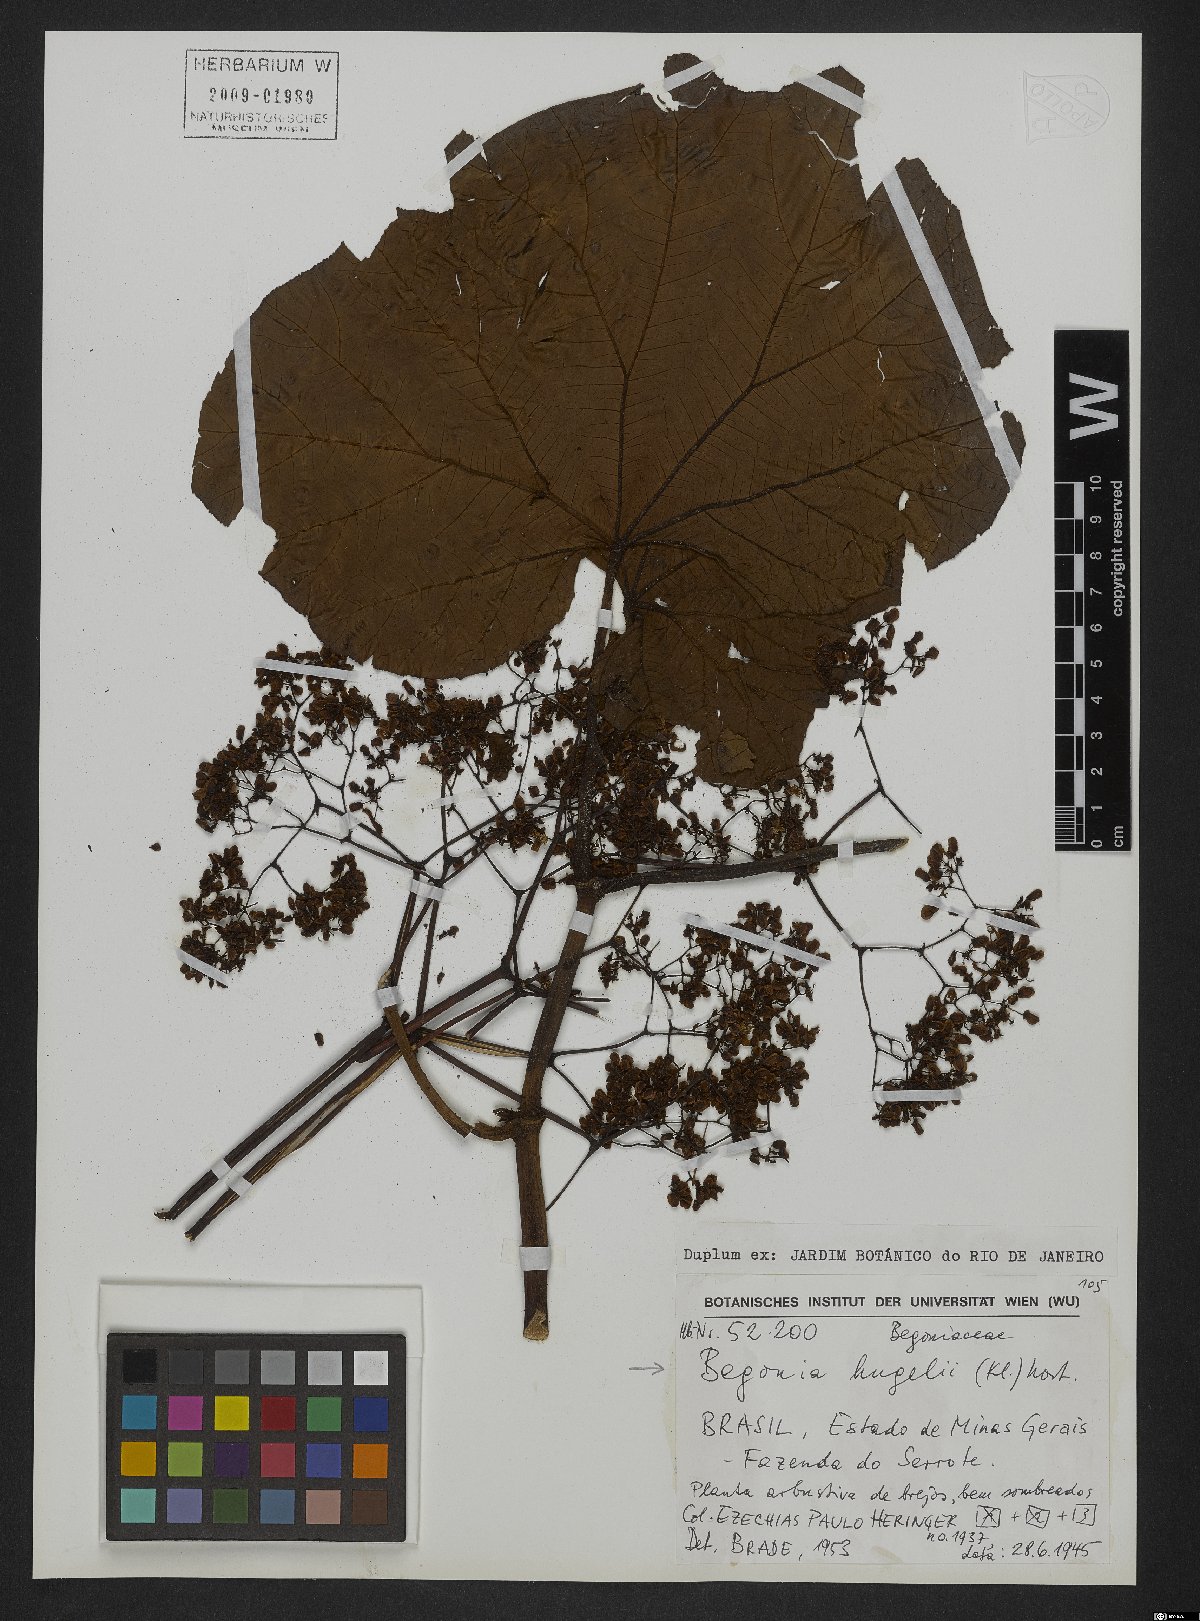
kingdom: Plantae
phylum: Tracheophyta
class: Magnoliopsida
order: Cucurbitales
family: Begoniaceae
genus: Begonia
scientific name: Begonia huegelii
